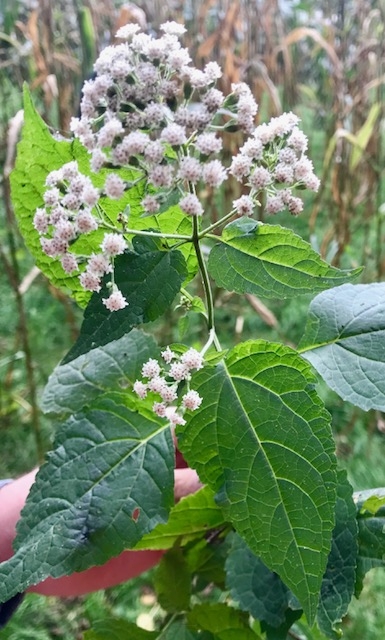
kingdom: Plantae
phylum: Tracheophyta
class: Magnoliopsida
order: Asterales
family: Asteraceae
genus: Ageratina
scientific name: Ageratina altissima
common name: White Snakeroot
